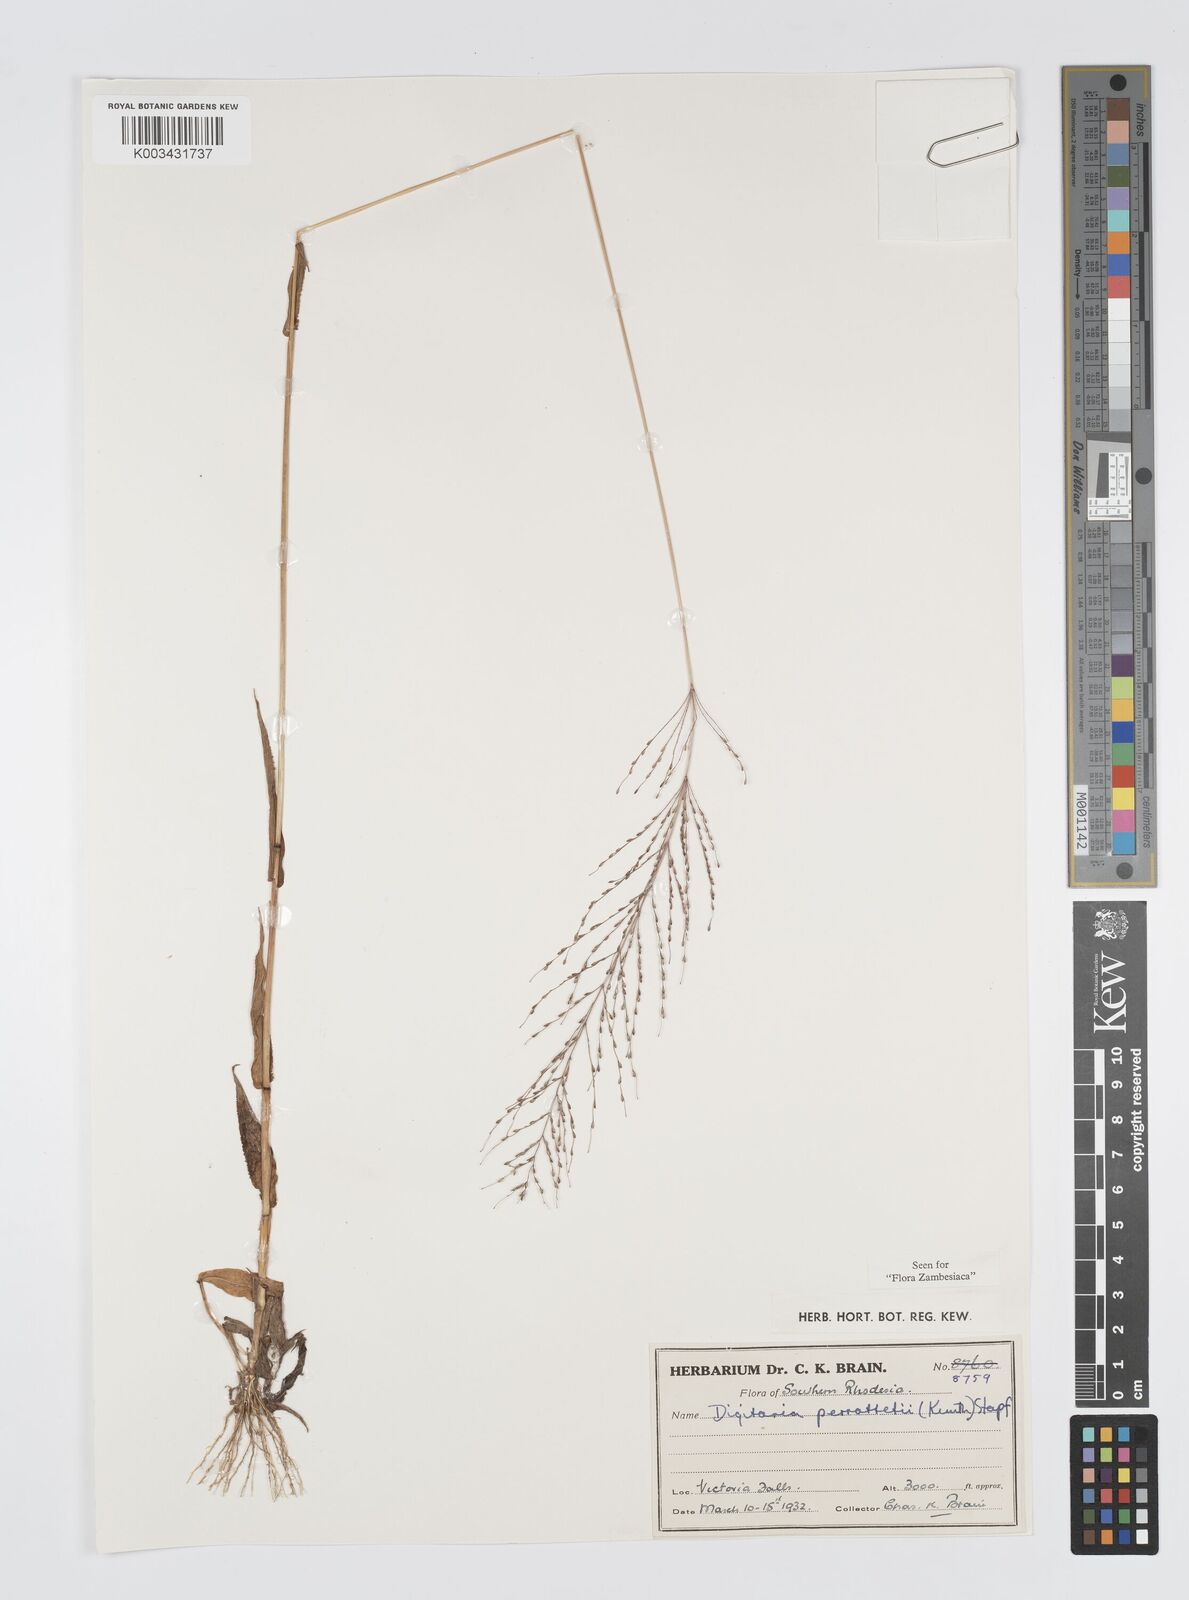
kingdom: Plantae
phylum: Tracheophyta
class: Liliopsida
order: Poales
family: Poaceae
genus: Digitaria
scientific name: Digitaria perrottetii
